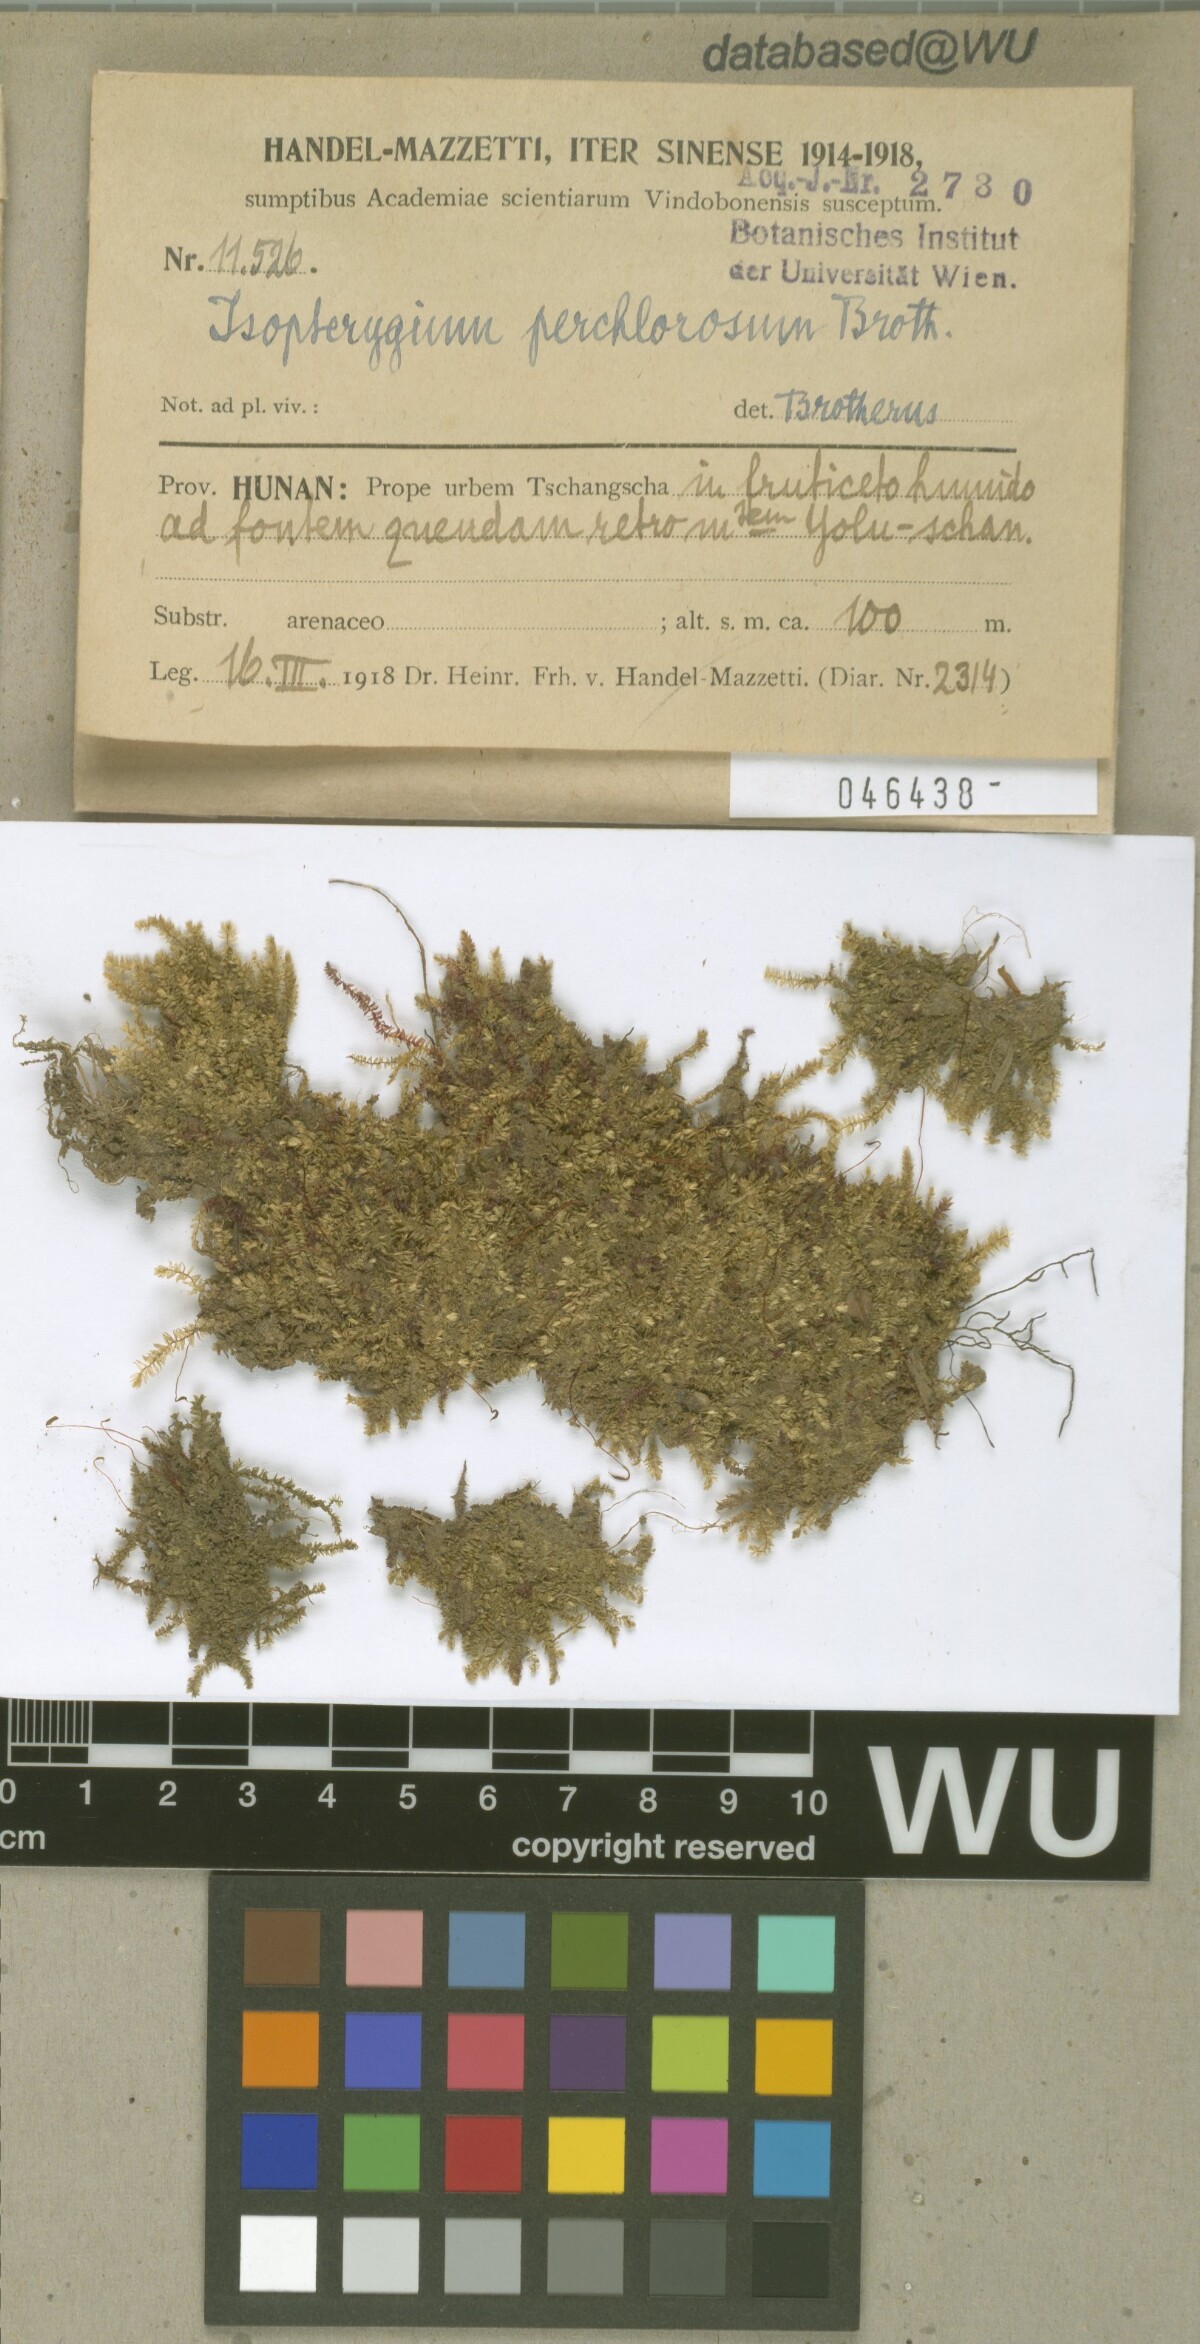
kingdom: Plantae
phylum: Bryophyta
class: Bryopsida
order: Hypnales
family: Plagiotheciaceae
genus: Pseudotaxiphyllum
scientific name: Pseudotaxiphyllum pohliicarpum
